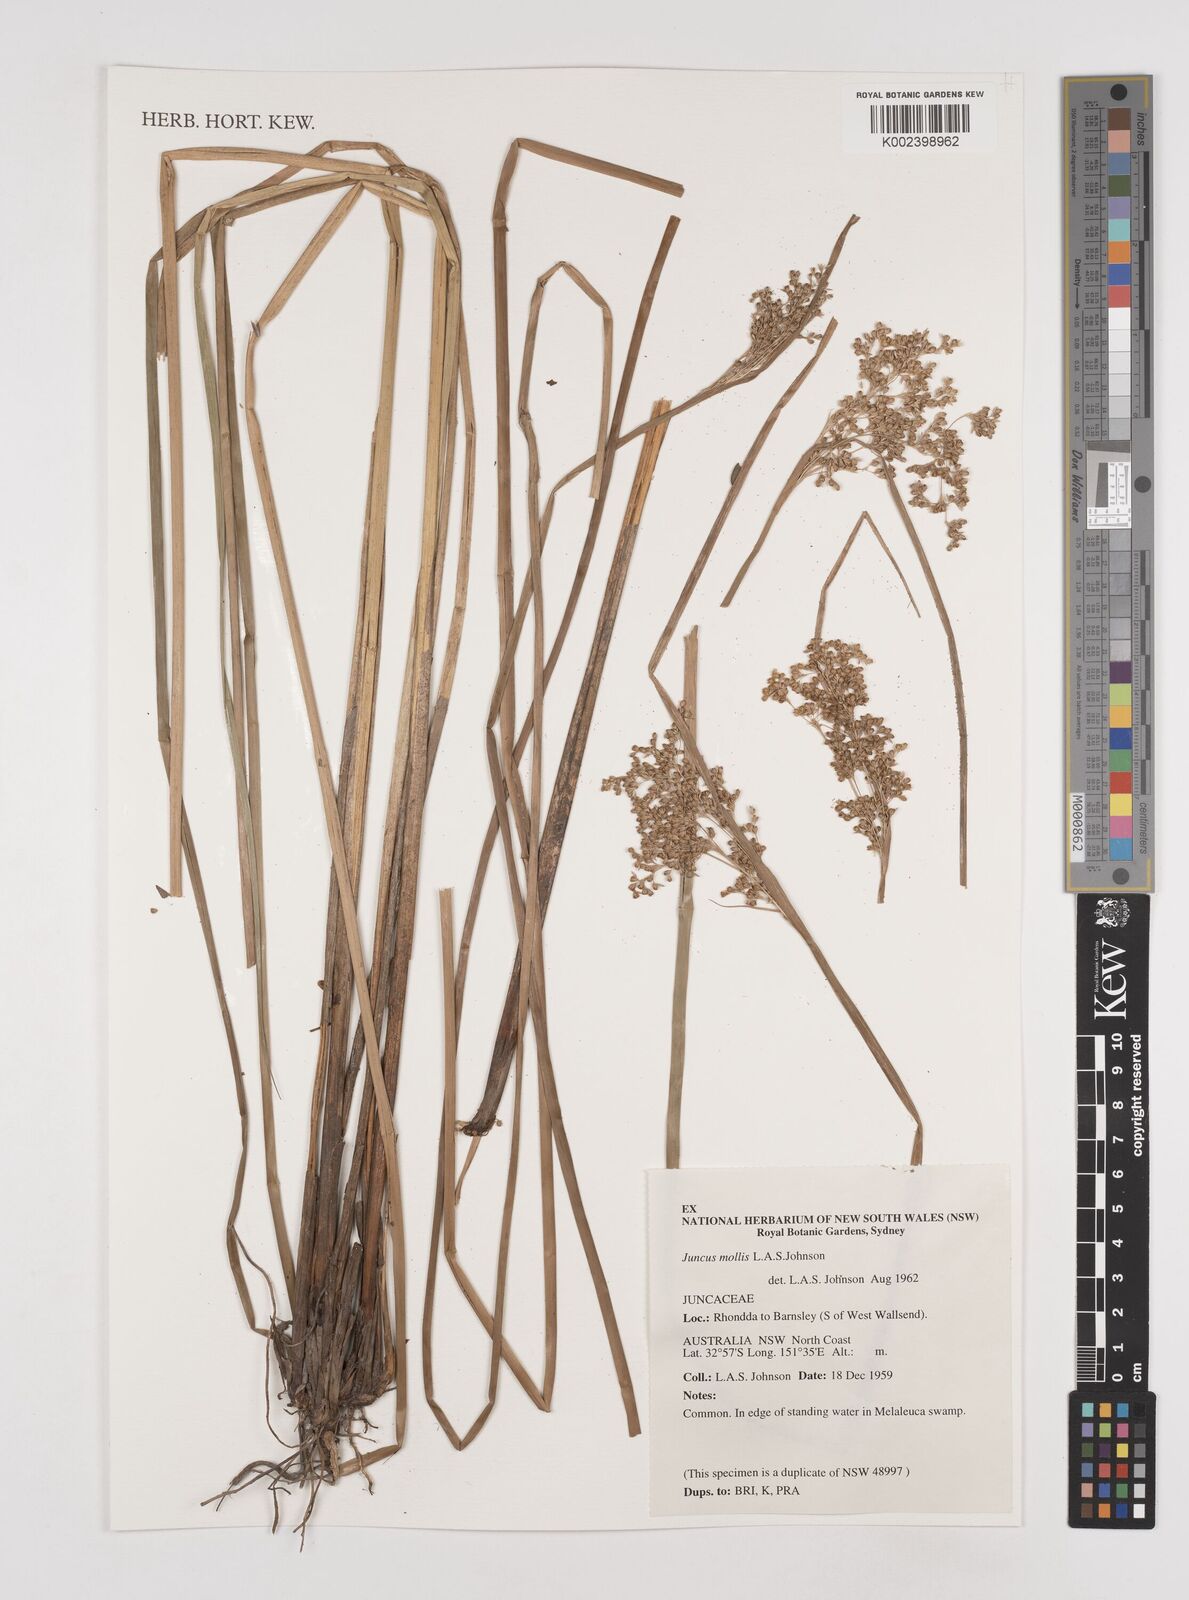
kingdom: Plantae
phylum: Tracheophyta
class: Liliopsida
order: Poales
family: Juncaceae
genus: Juncus
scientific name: Juncus mollis
